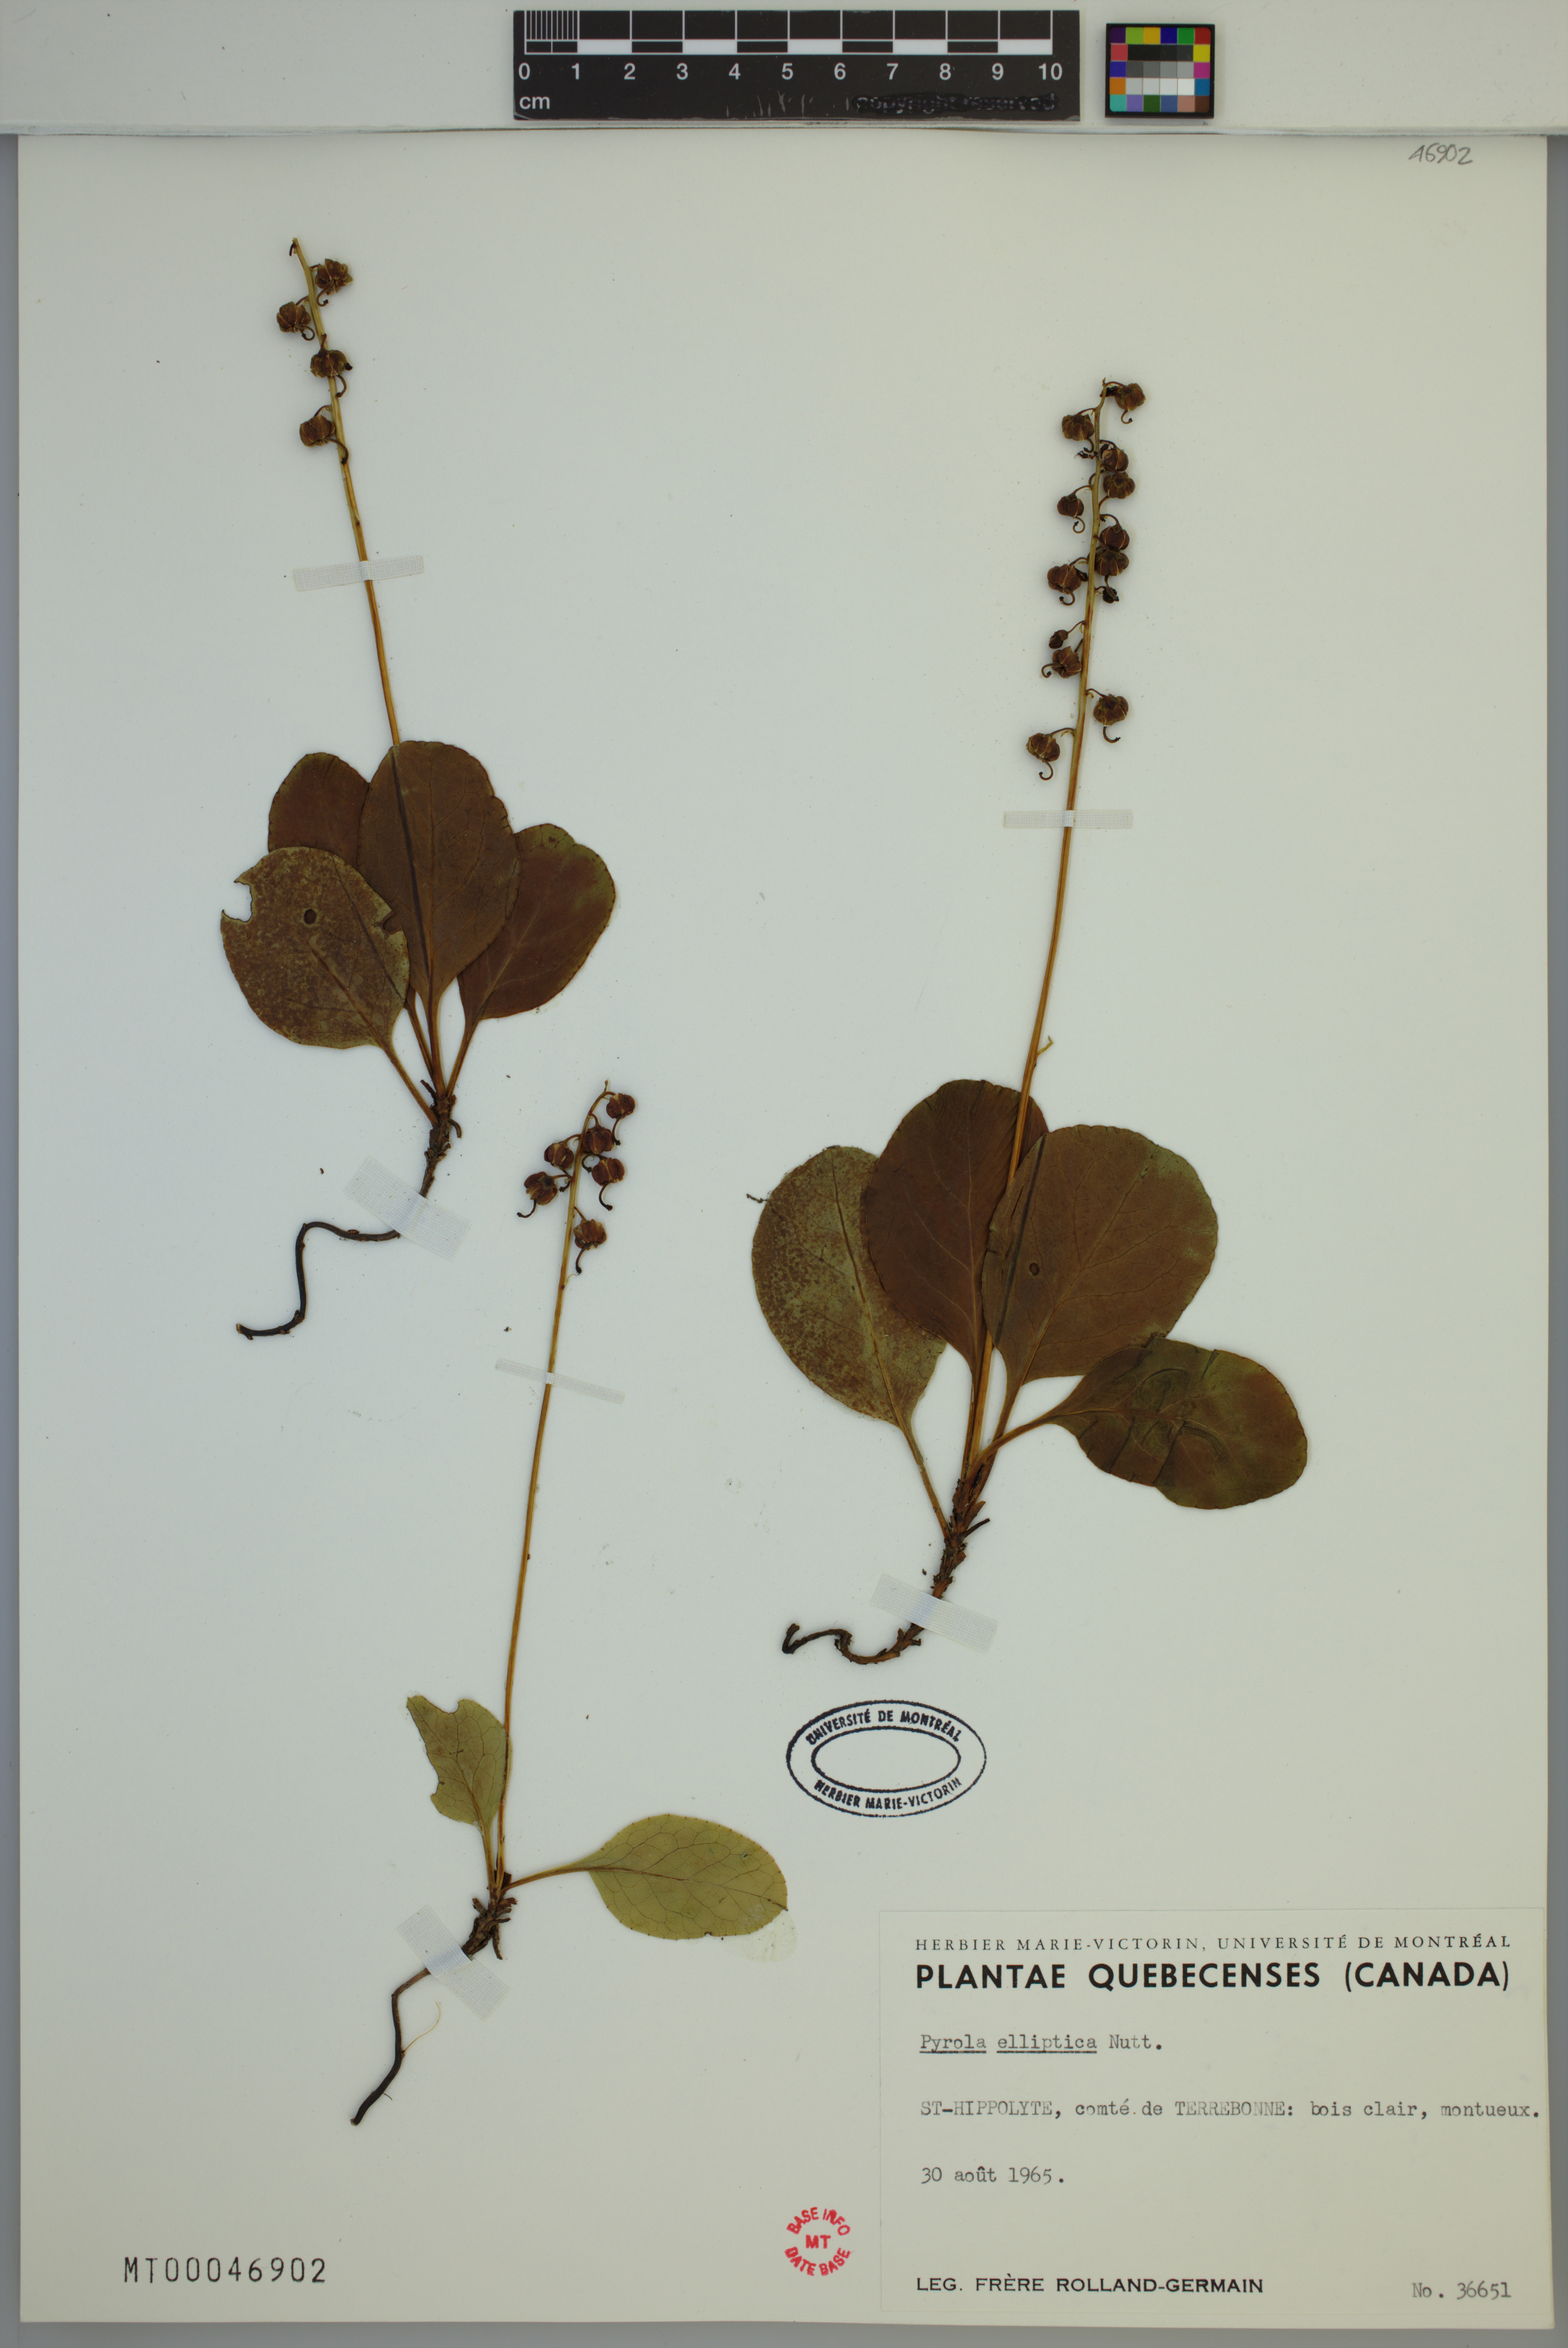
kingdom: Plantae
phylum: Tracheophyta
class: Magnoliopsida
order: Ericales
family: Ericaceae
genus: Pyrola
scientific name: Pyrola elliptica
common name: Shinleaf
